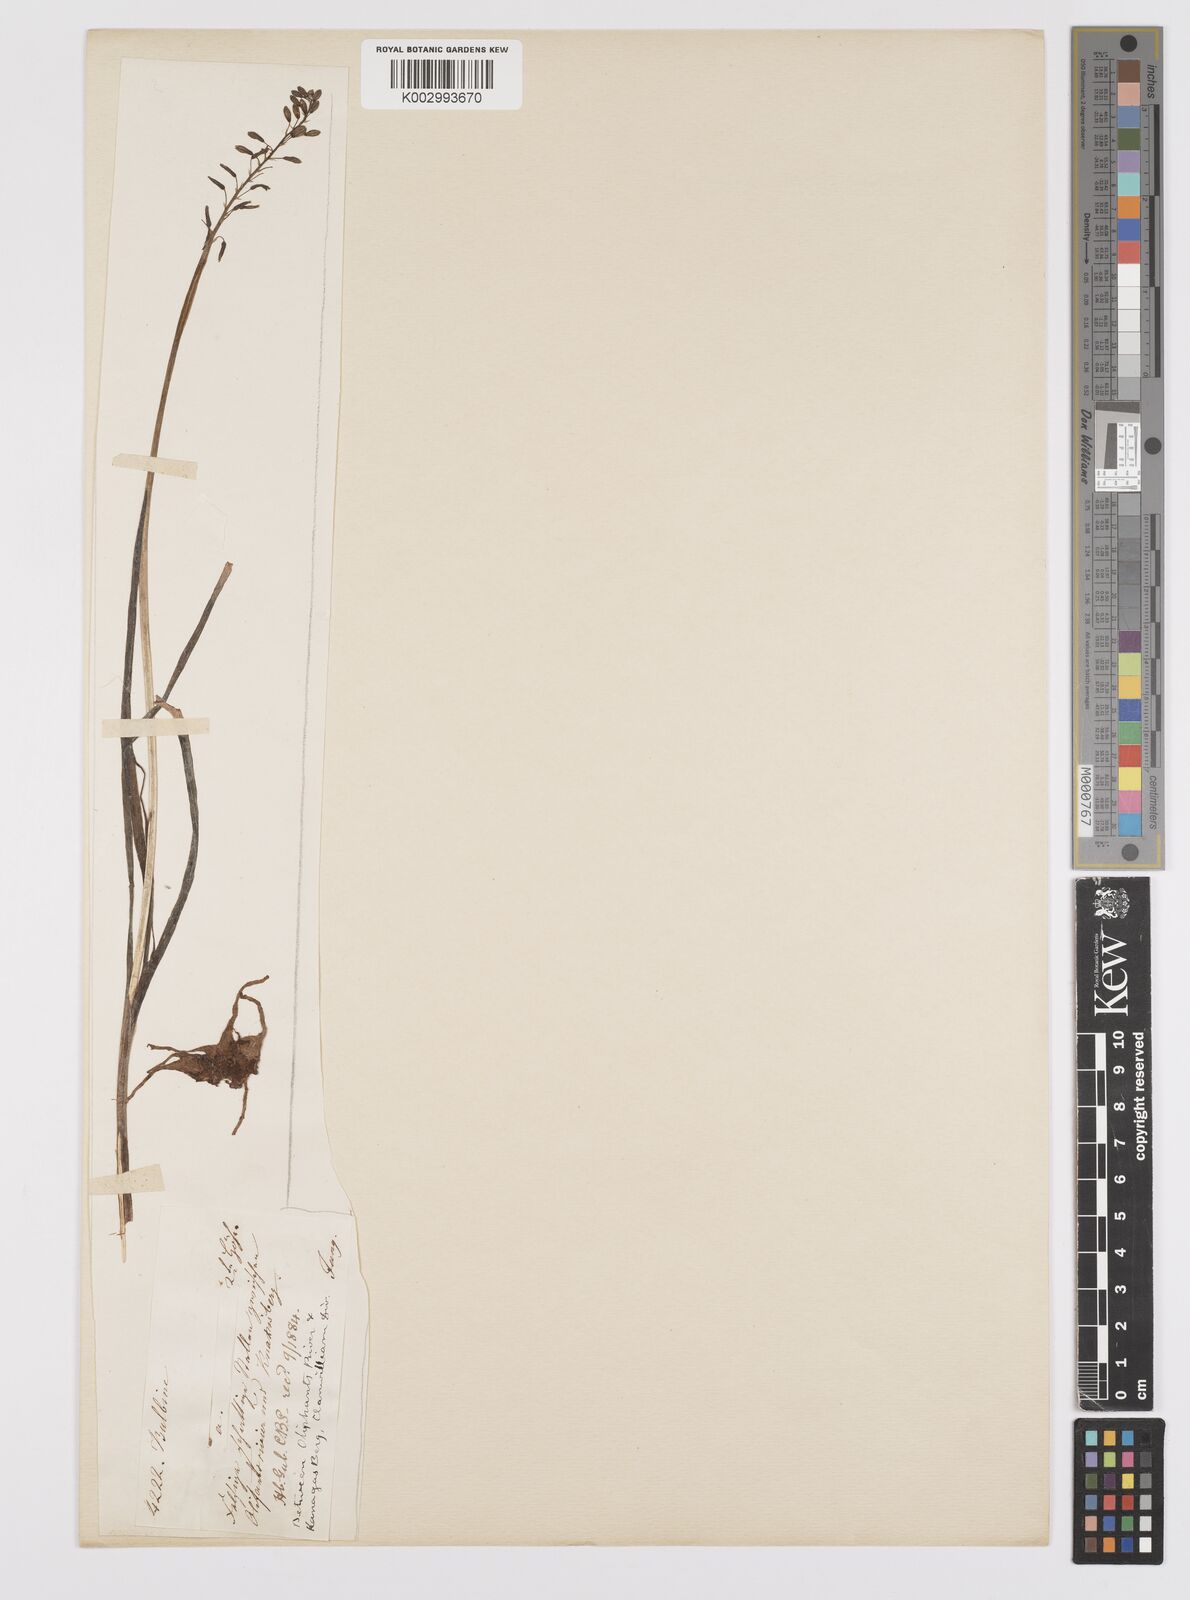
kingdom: Plantae
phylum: Tracheophyta
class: Liliopsida
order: Asparagales
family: Asphodelaceae
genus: Bulbine
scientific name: Bulbine flexicaulis
